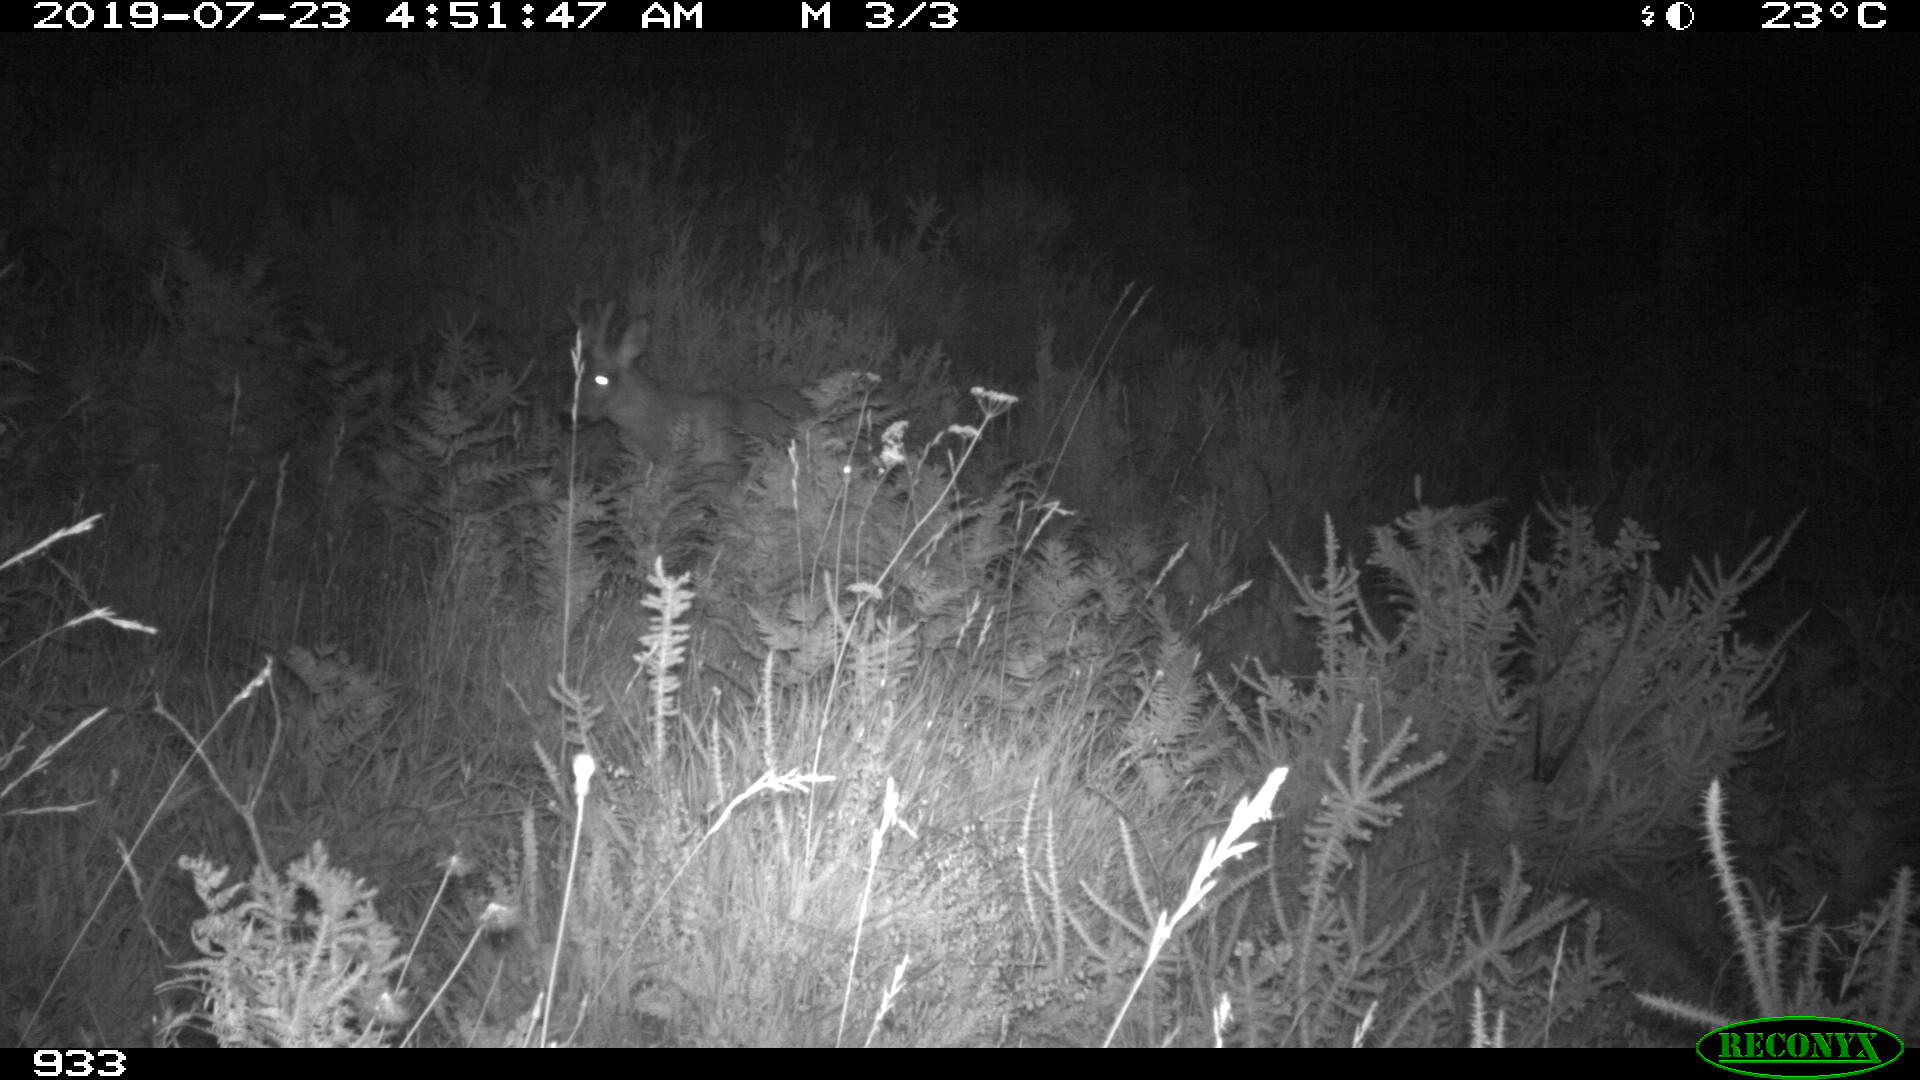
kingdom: Animalia
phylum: Chordata
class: Mammalia
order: Artiodactyla
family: Cervidae
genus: Capreolus
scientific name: Capreolus capreolus
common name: Western roe deer
